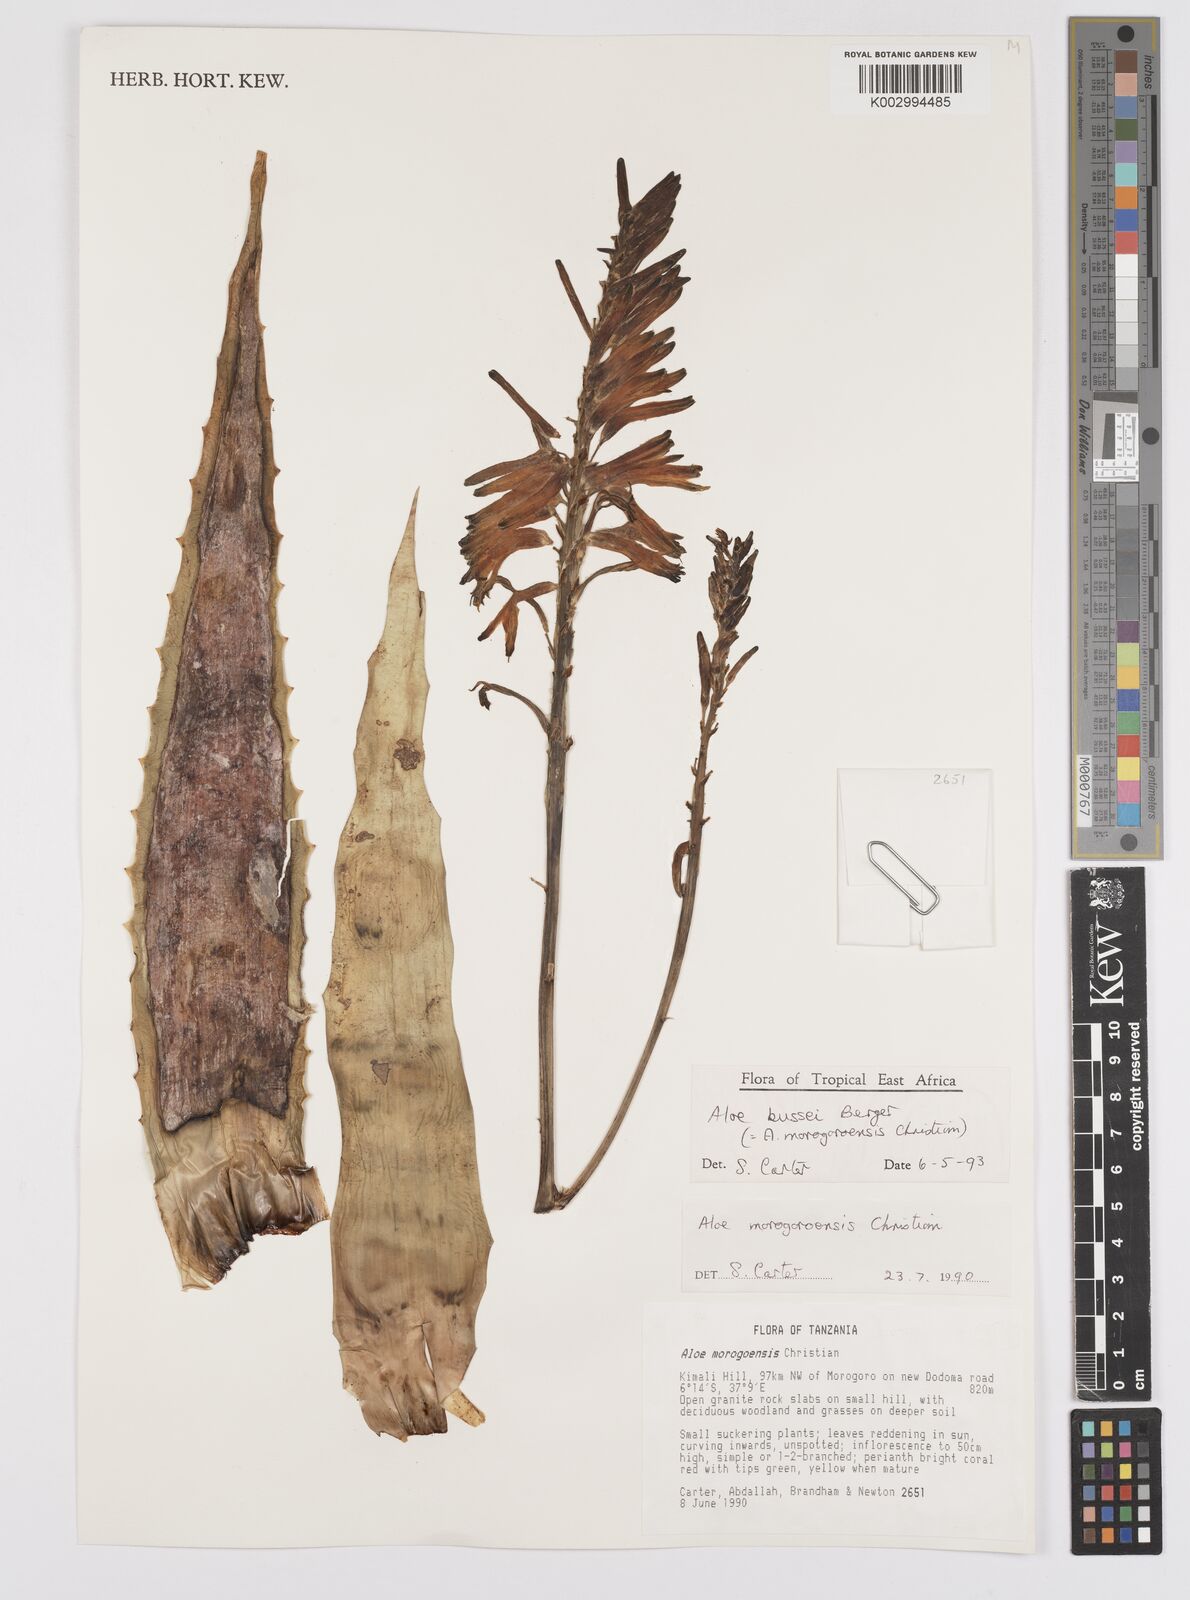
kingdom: Plantae
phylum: Tracheophyta
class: Liliopsida
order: Asparagales
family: Asphodelaceae
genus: Aloe
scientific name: Aloe bussei
